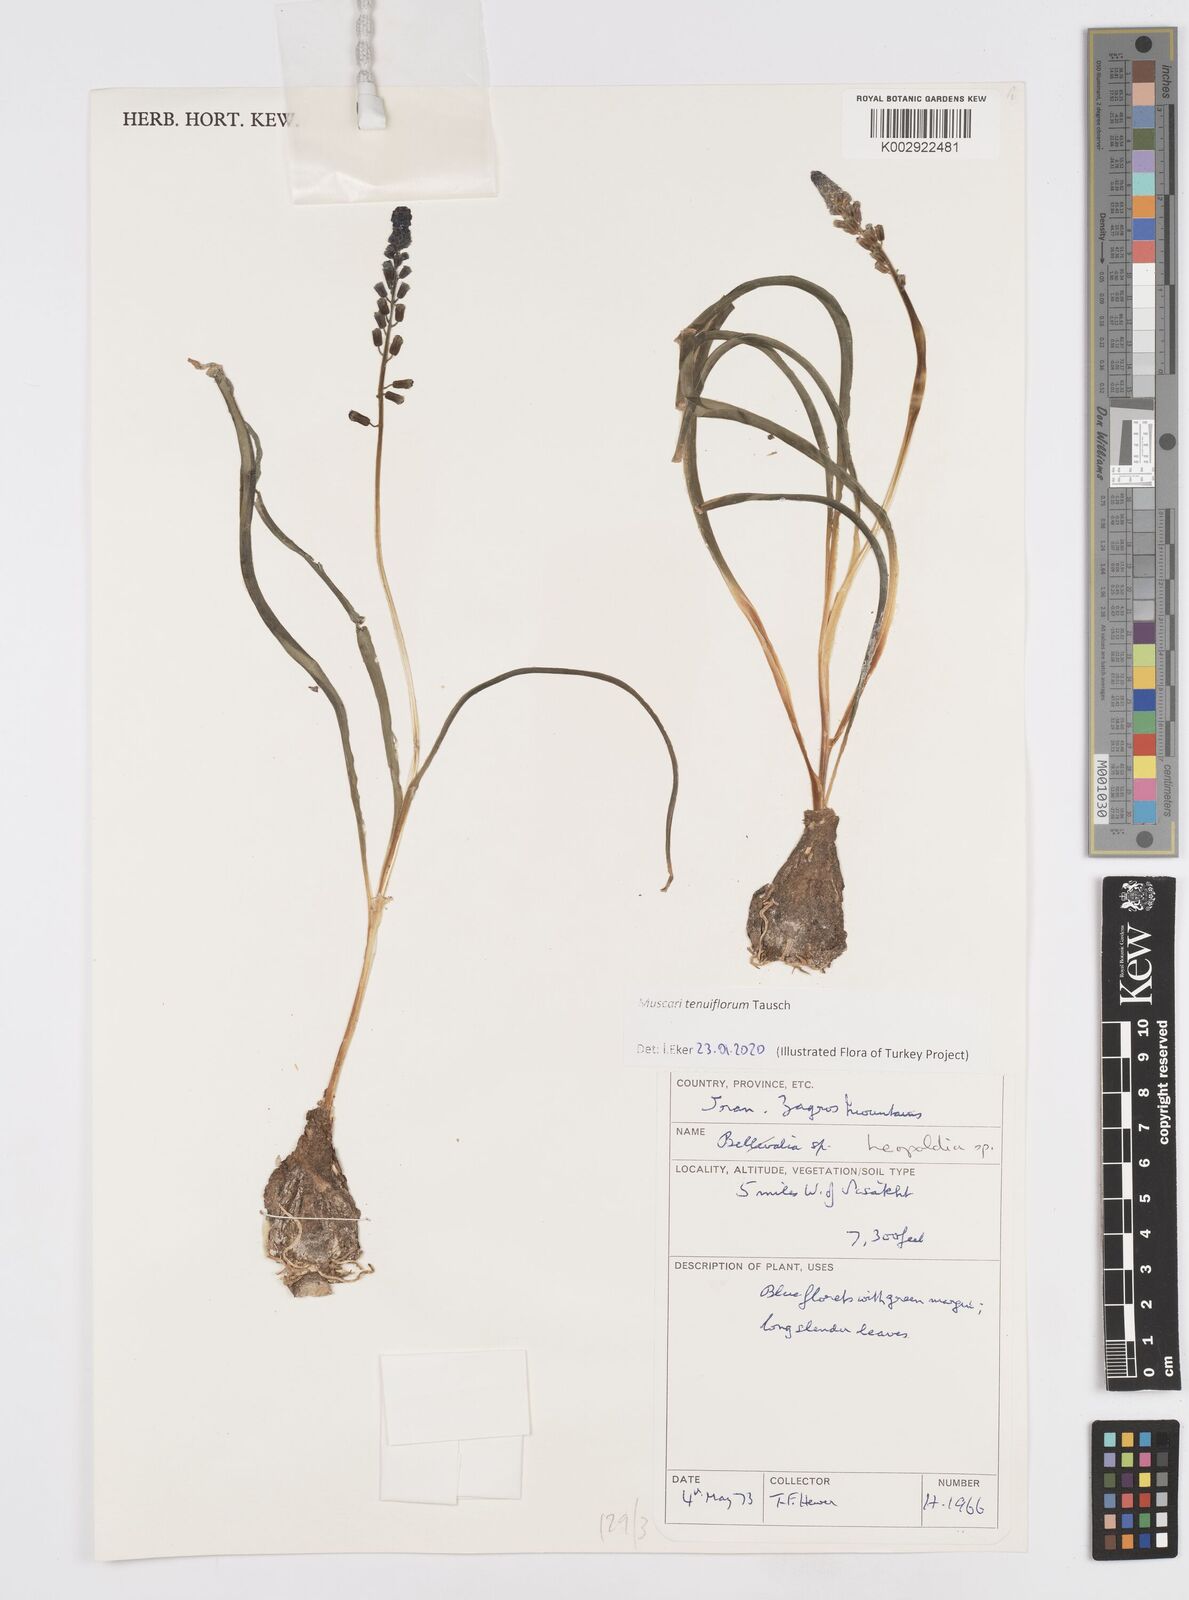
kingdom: Animalia
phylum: Mollusca
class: Cephalopoda
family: Neocomitidae
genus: Leopoldia
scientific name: Leopoldia
